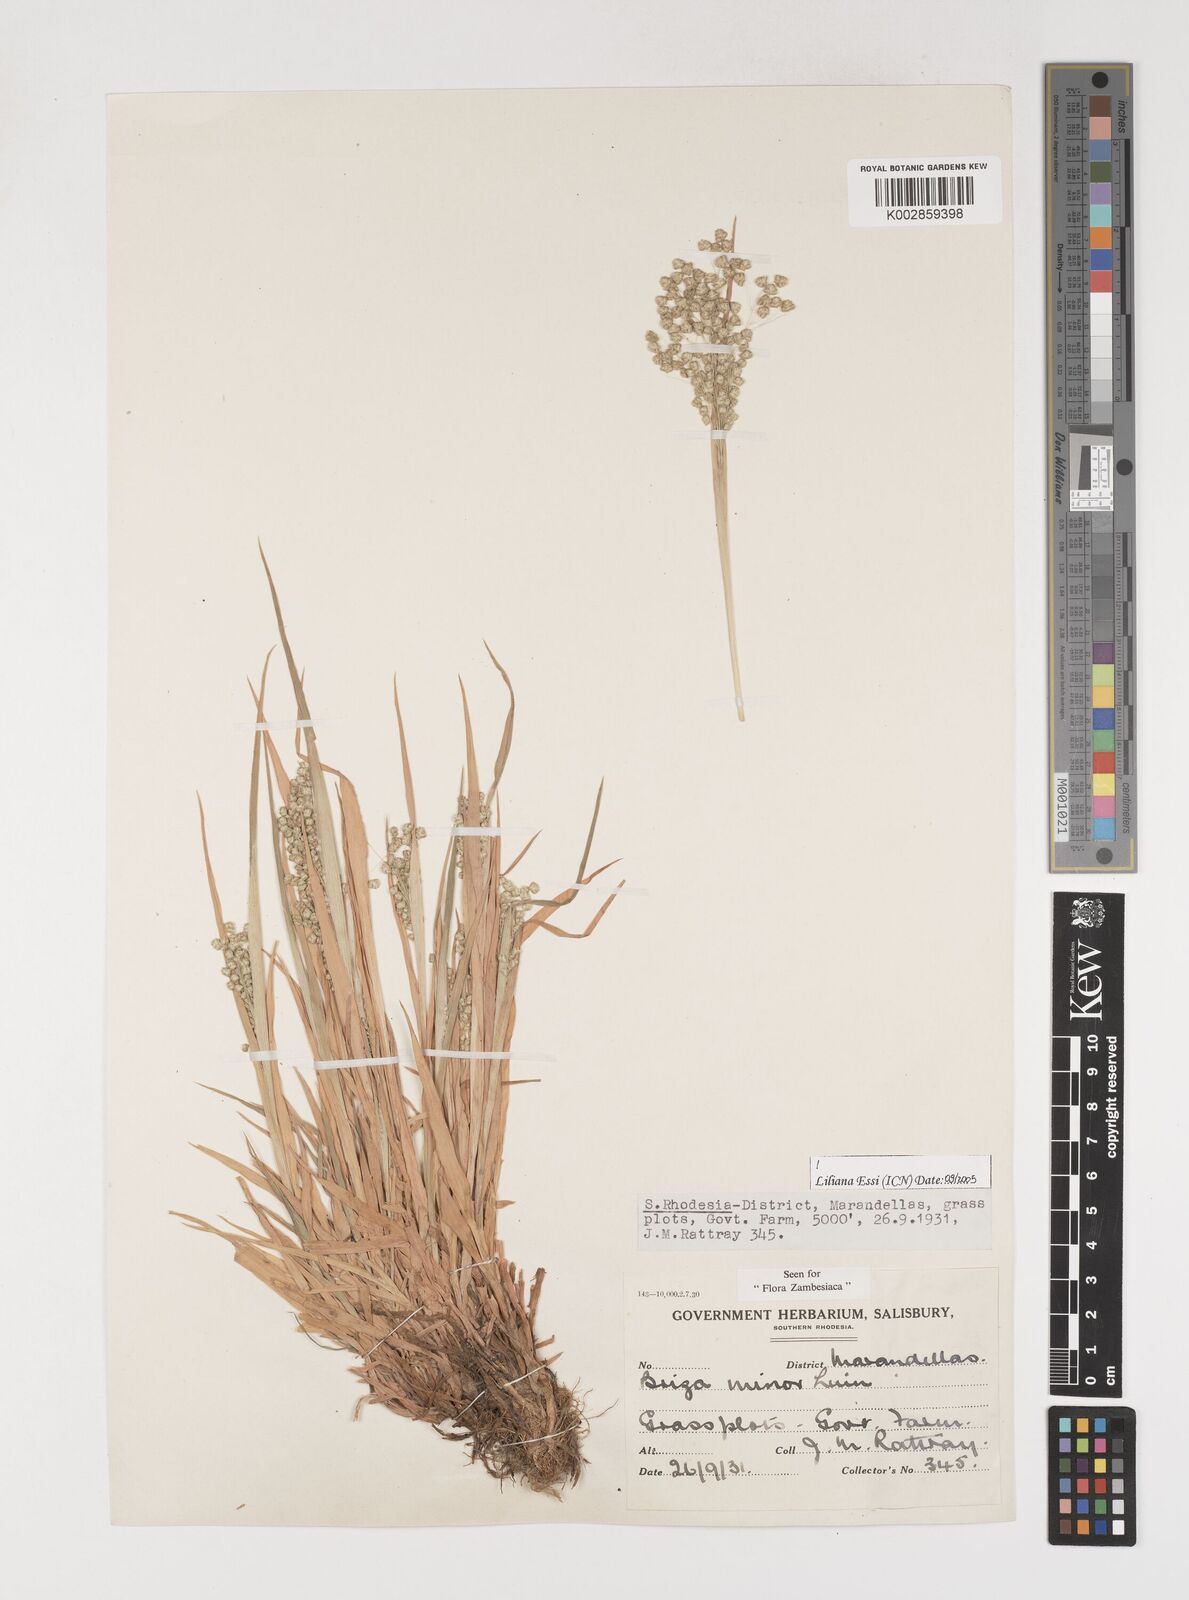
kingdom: Plantae
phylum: Tracheophyta
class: Liliopsida
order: Poales
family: Poaceae
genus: Briza
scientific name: Briza minor
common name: Lesser quaking-grass
